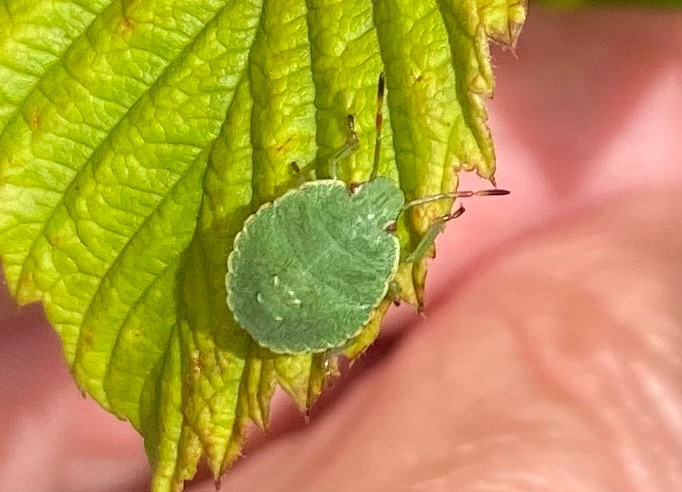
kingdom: Animalia
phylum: Arthropoda
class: Insecta
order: Hemiptera
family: Pentatomidae
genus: Palomena
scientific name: Palomena prasina
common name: Grøn bredtæge
